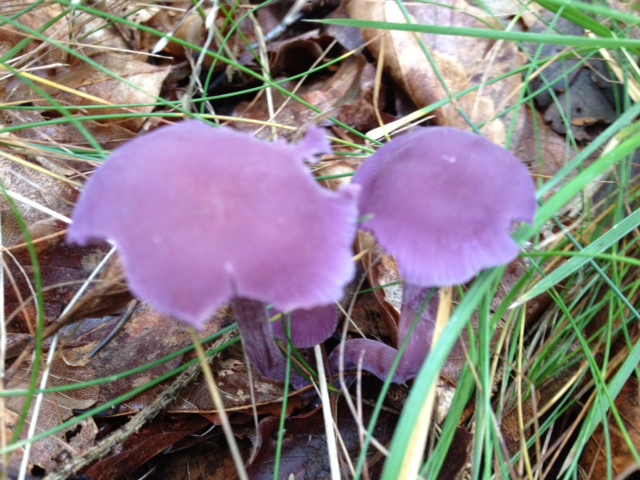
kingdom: Fungi
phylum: Basidiomycota
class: Agaricomycetes
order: Agaricales
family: Hydnangiaceae
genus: Laccaria
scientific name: Laccaria amethystina
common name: violet ametysthat
